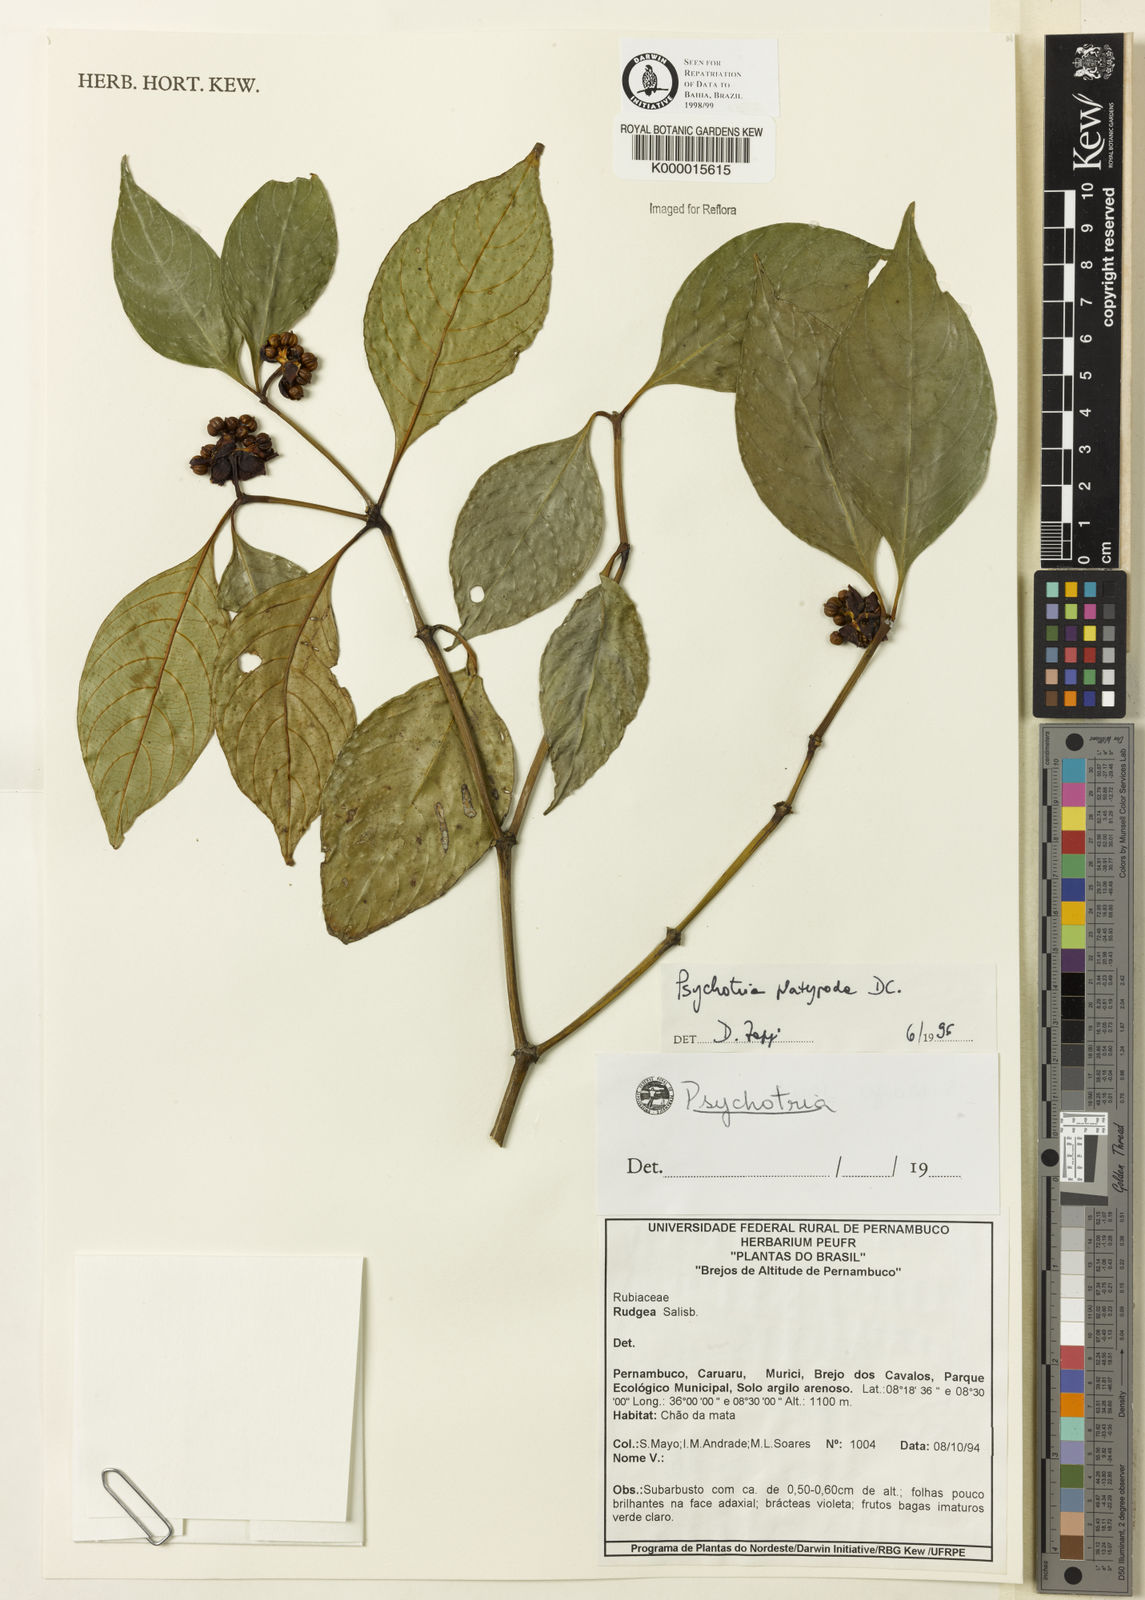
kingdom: Plantae
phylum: Tracheophyta
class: Magnoliopsida
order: Gentianales
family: Rubiaceae
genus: Palicourea
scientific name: Palicourea dichotoma
